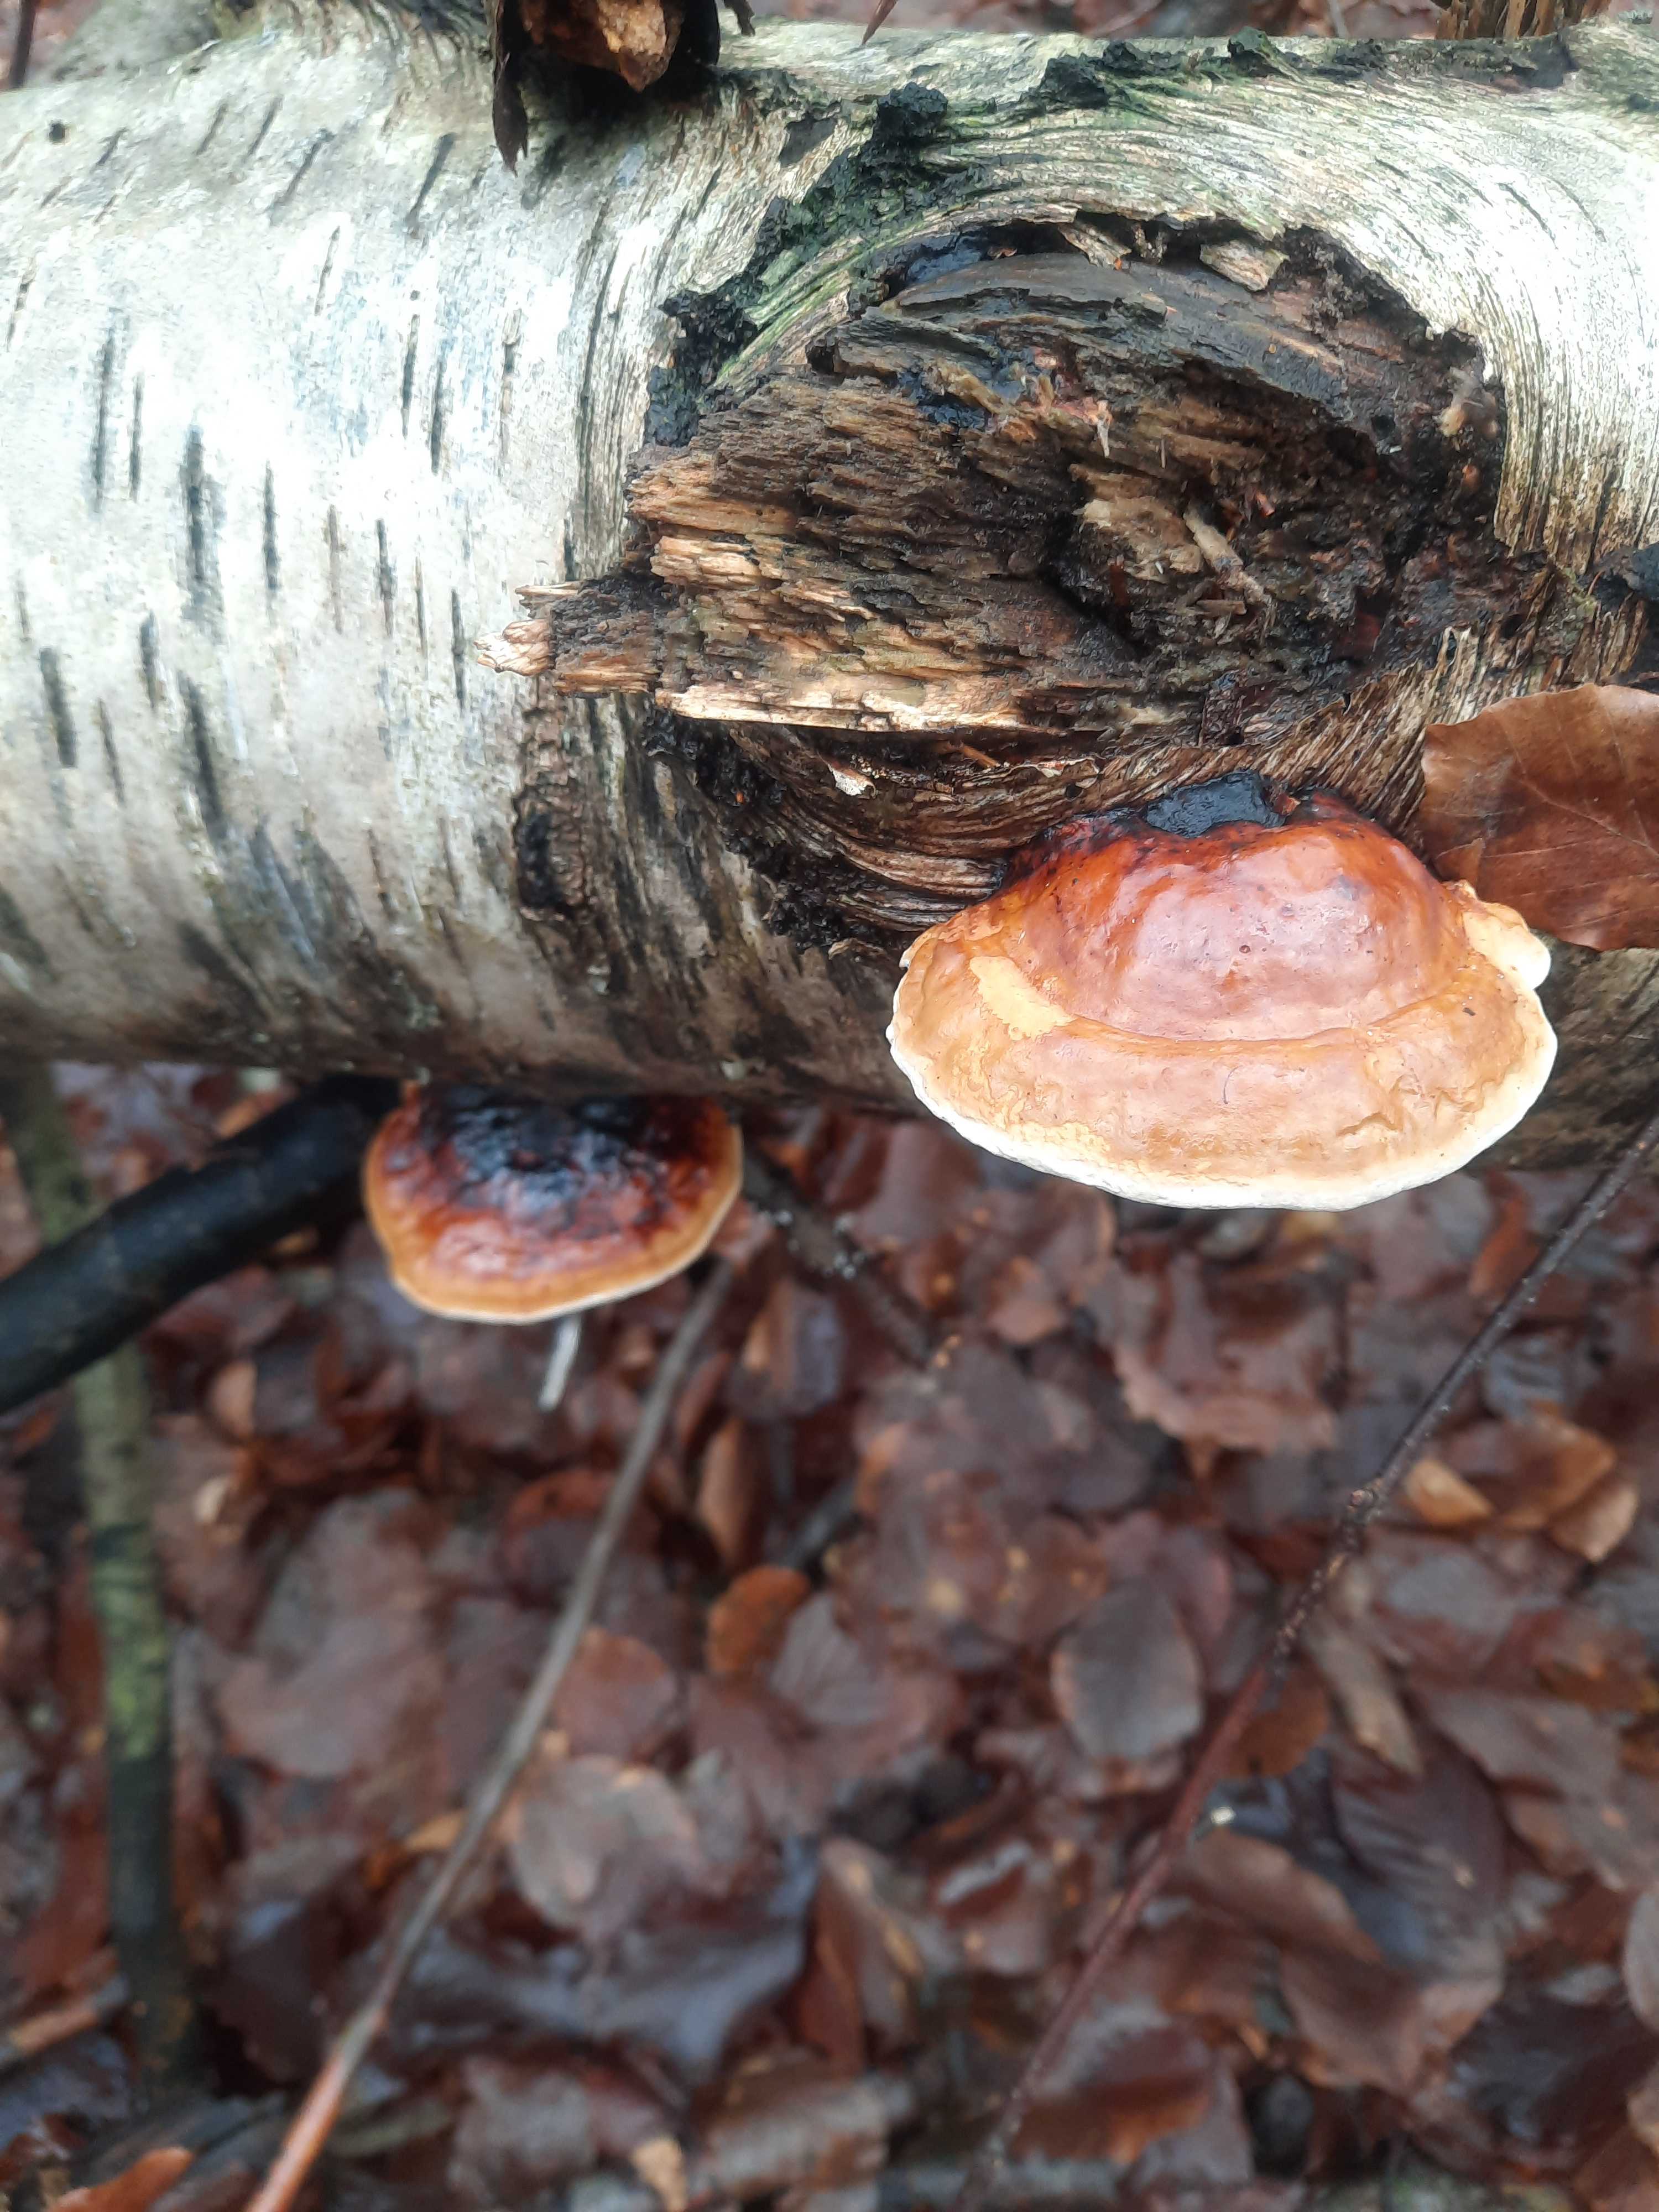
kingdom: Fungi
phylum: Basidiomycota
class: Agaricomycetes
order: Polyporales
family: Fomitopsidaceae
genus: Fomitopsis
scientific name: Fomitopsis pinicola
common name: randbæltet hovporesvamp
